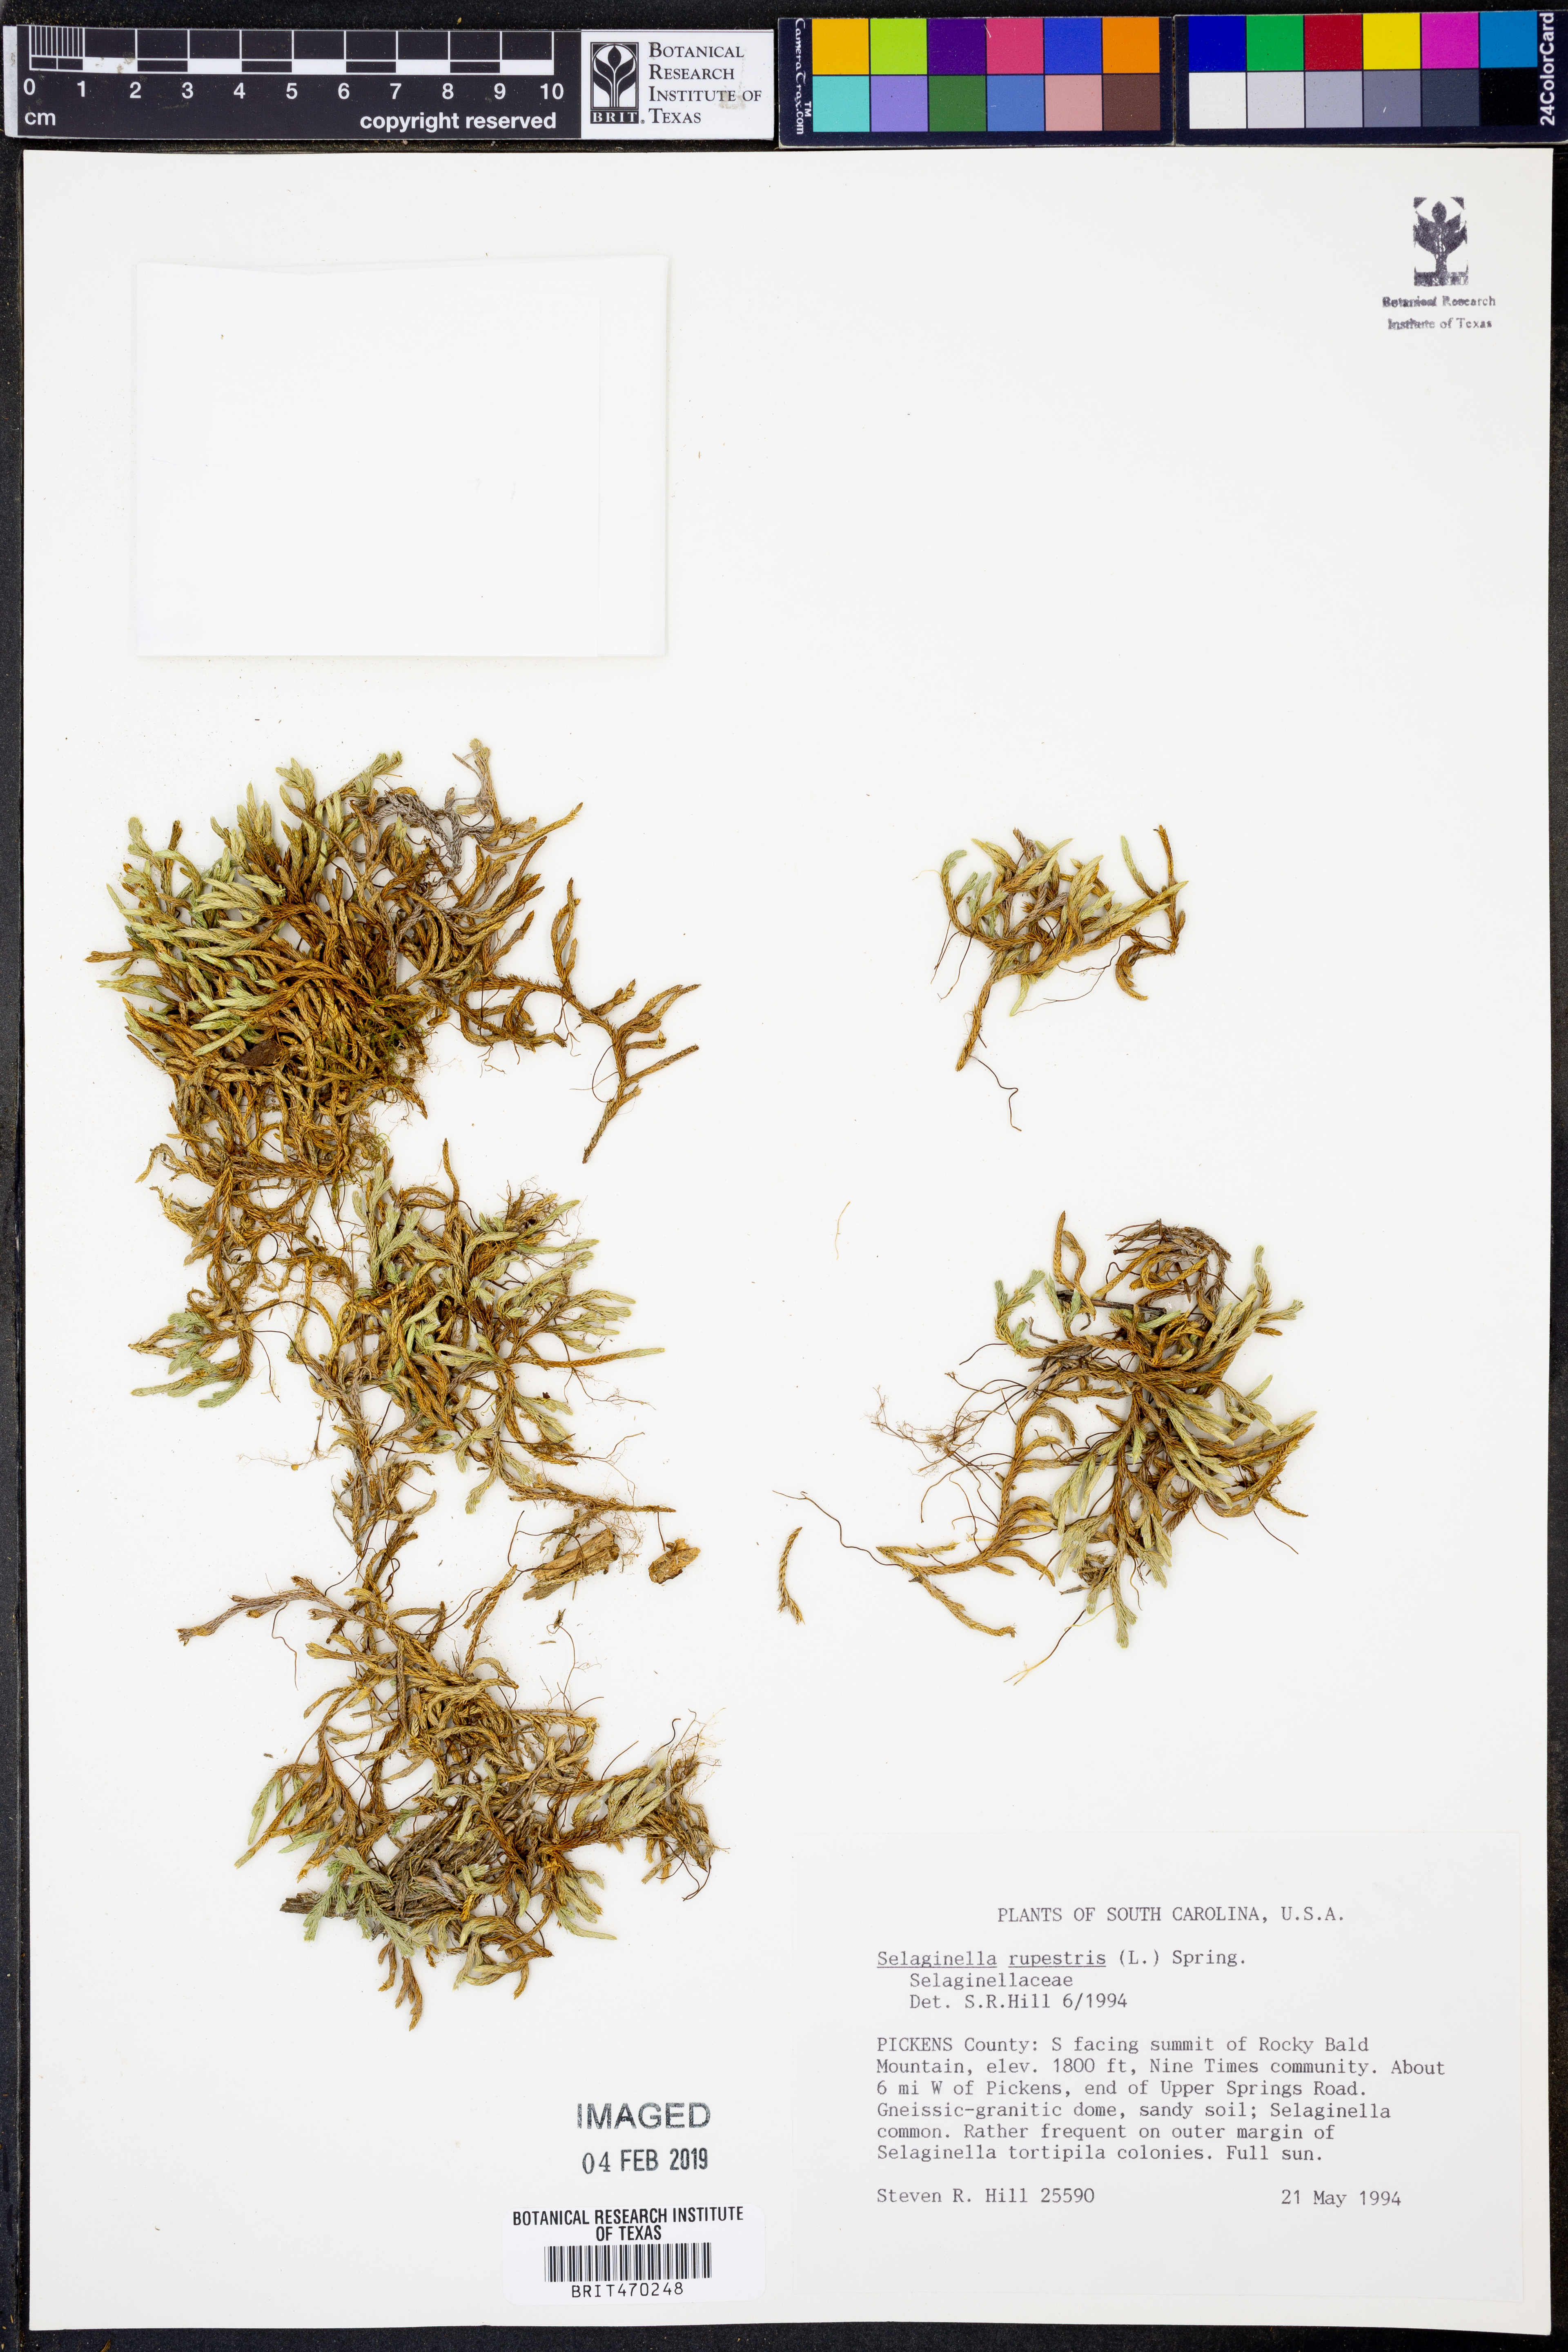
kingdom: Plantae
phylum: Tracheophyta
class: Lycopodiopsida
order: Selaginellales
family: Selaginellaceae
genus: Selaginella
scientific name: Selaginella rupestris
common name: Dwarf spikemoss
